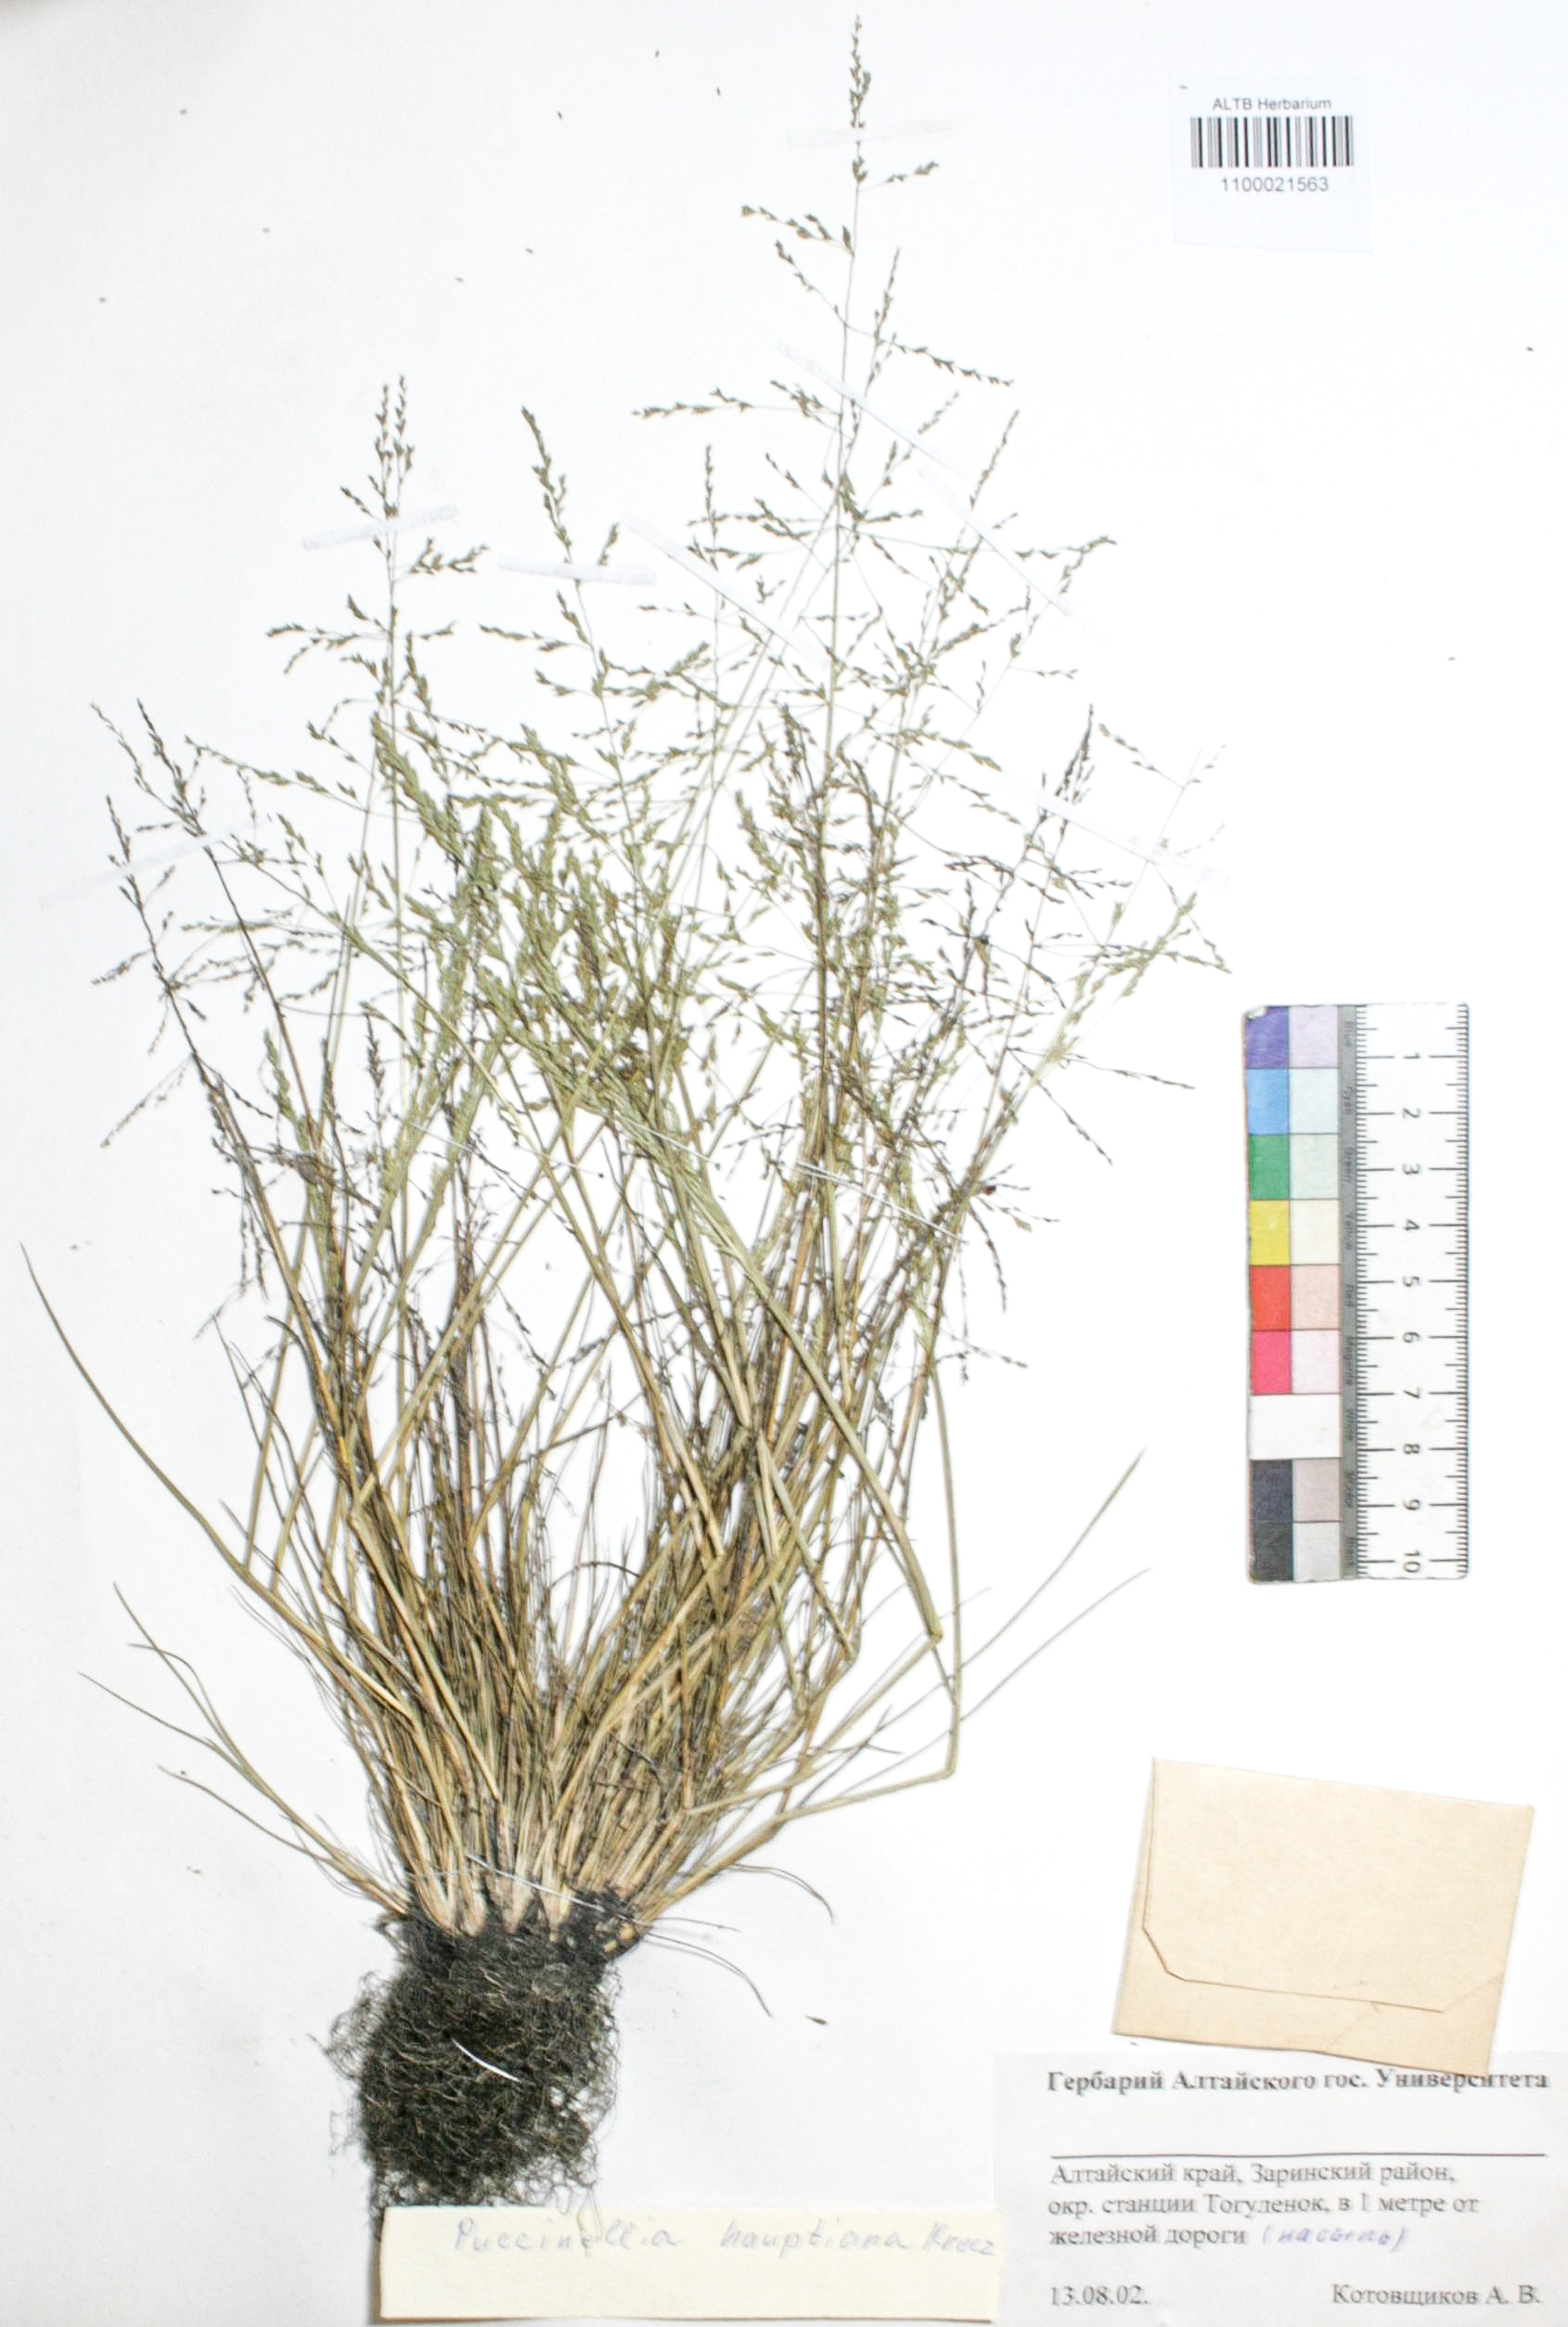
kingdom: Plantae
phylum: Tracheophyta
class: Liliopsida
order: Poales
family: Poaceae
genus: Puccinellia
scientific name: Puccinellia hauptiana
